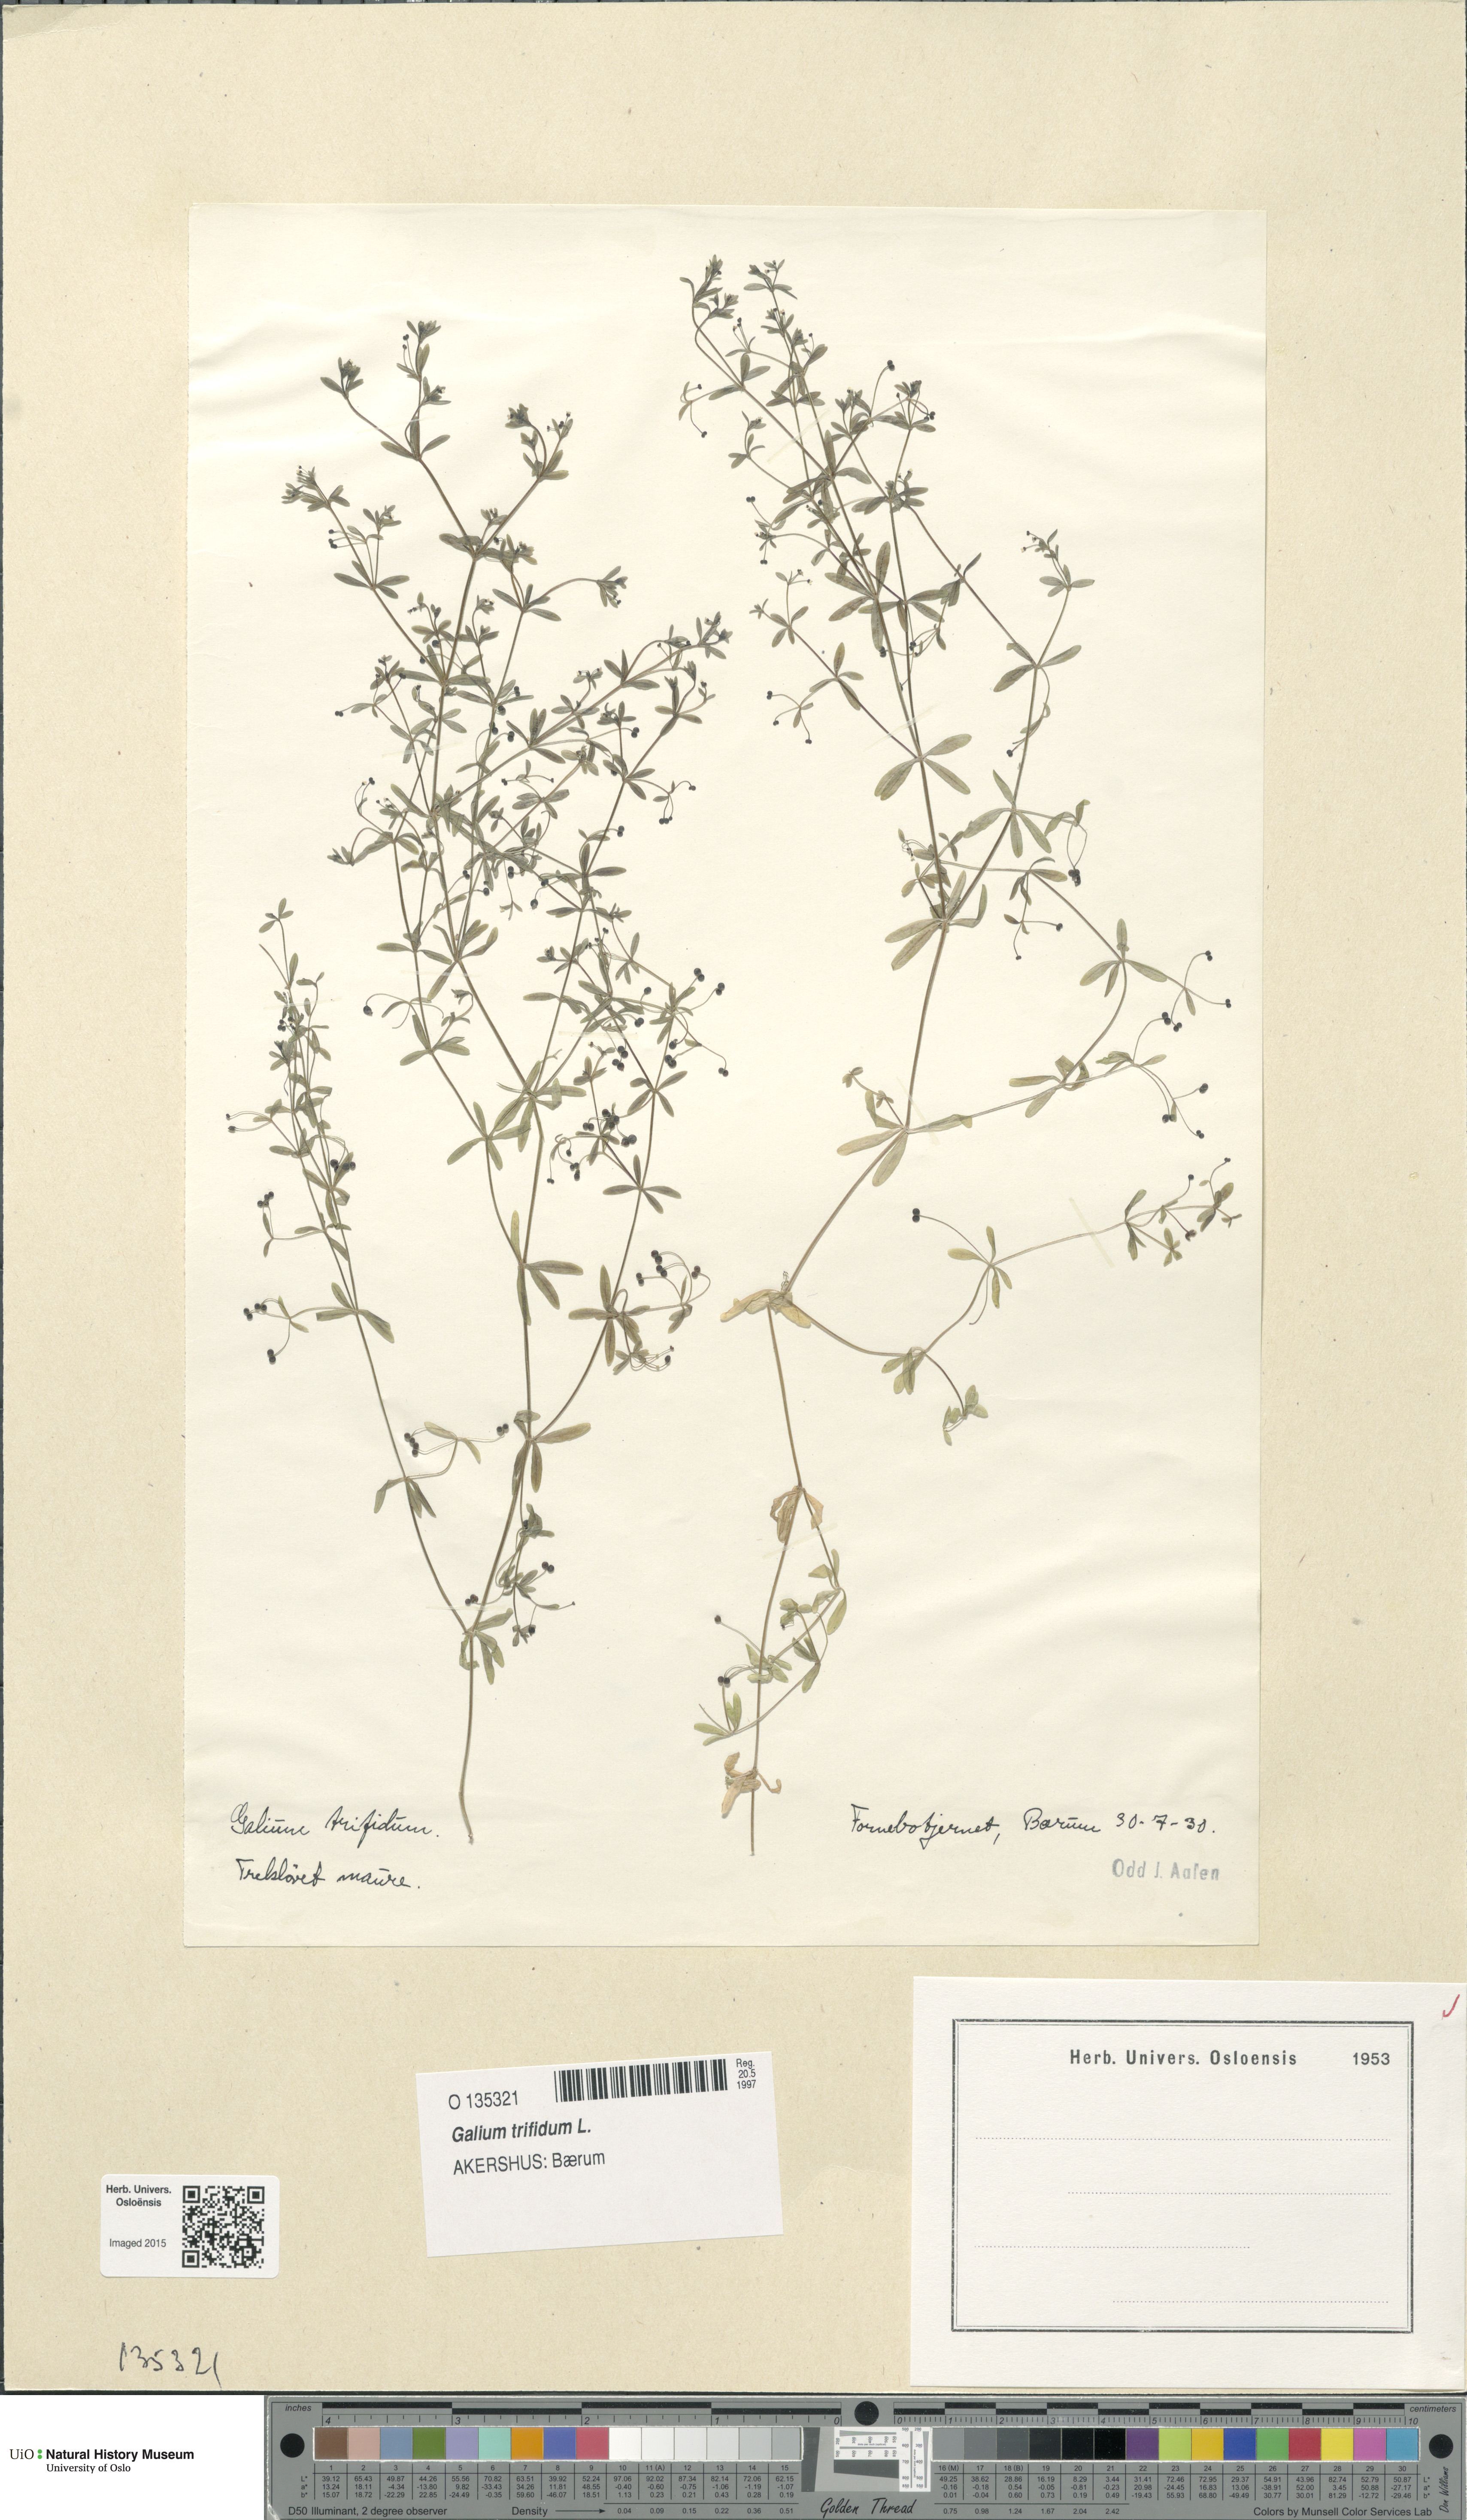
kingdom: Plantae
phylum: Tracheophyta
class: Magnoliopsida
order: Gentianales
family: Rubiaceae
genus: Galium
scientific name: Galium trifidum
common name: Small bedstraw
